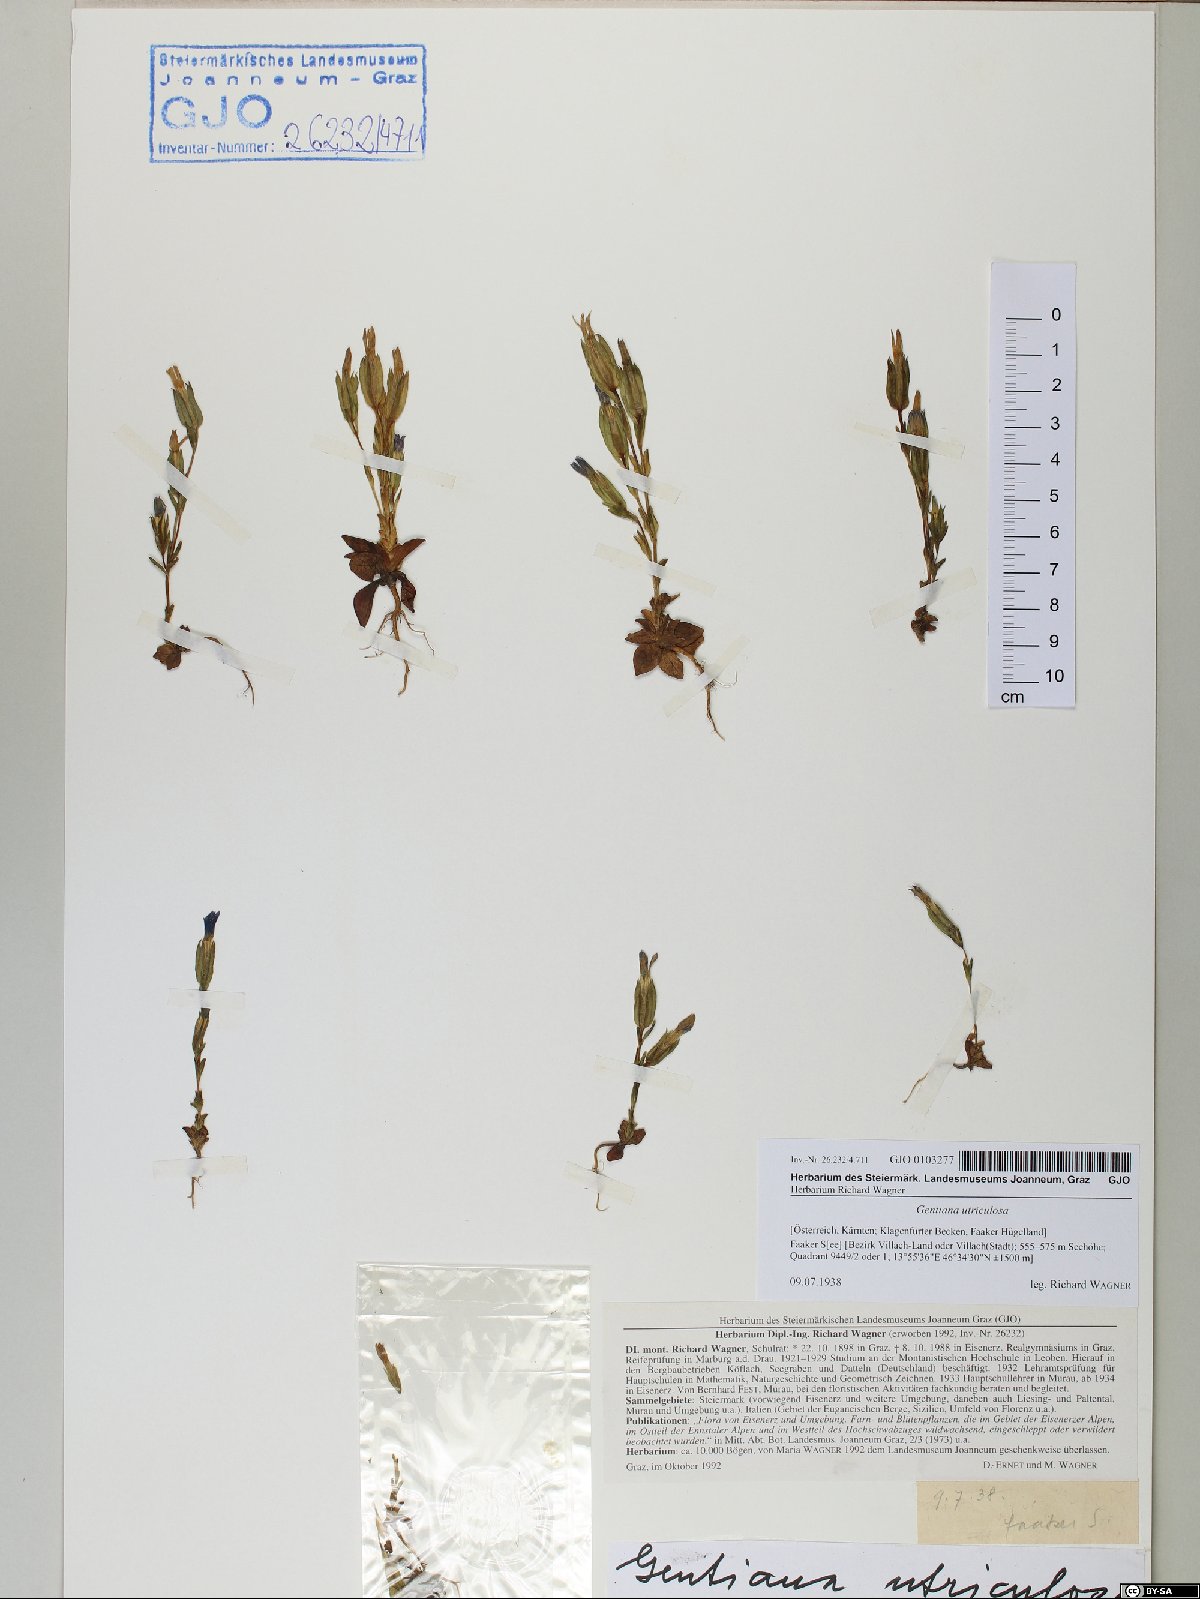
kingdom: Plantae
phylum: Tracheophyta
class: Magnoliopsida
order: Gentianales
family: Gentianaceae
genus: Gentiana
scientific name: Gentiana utriculosa
